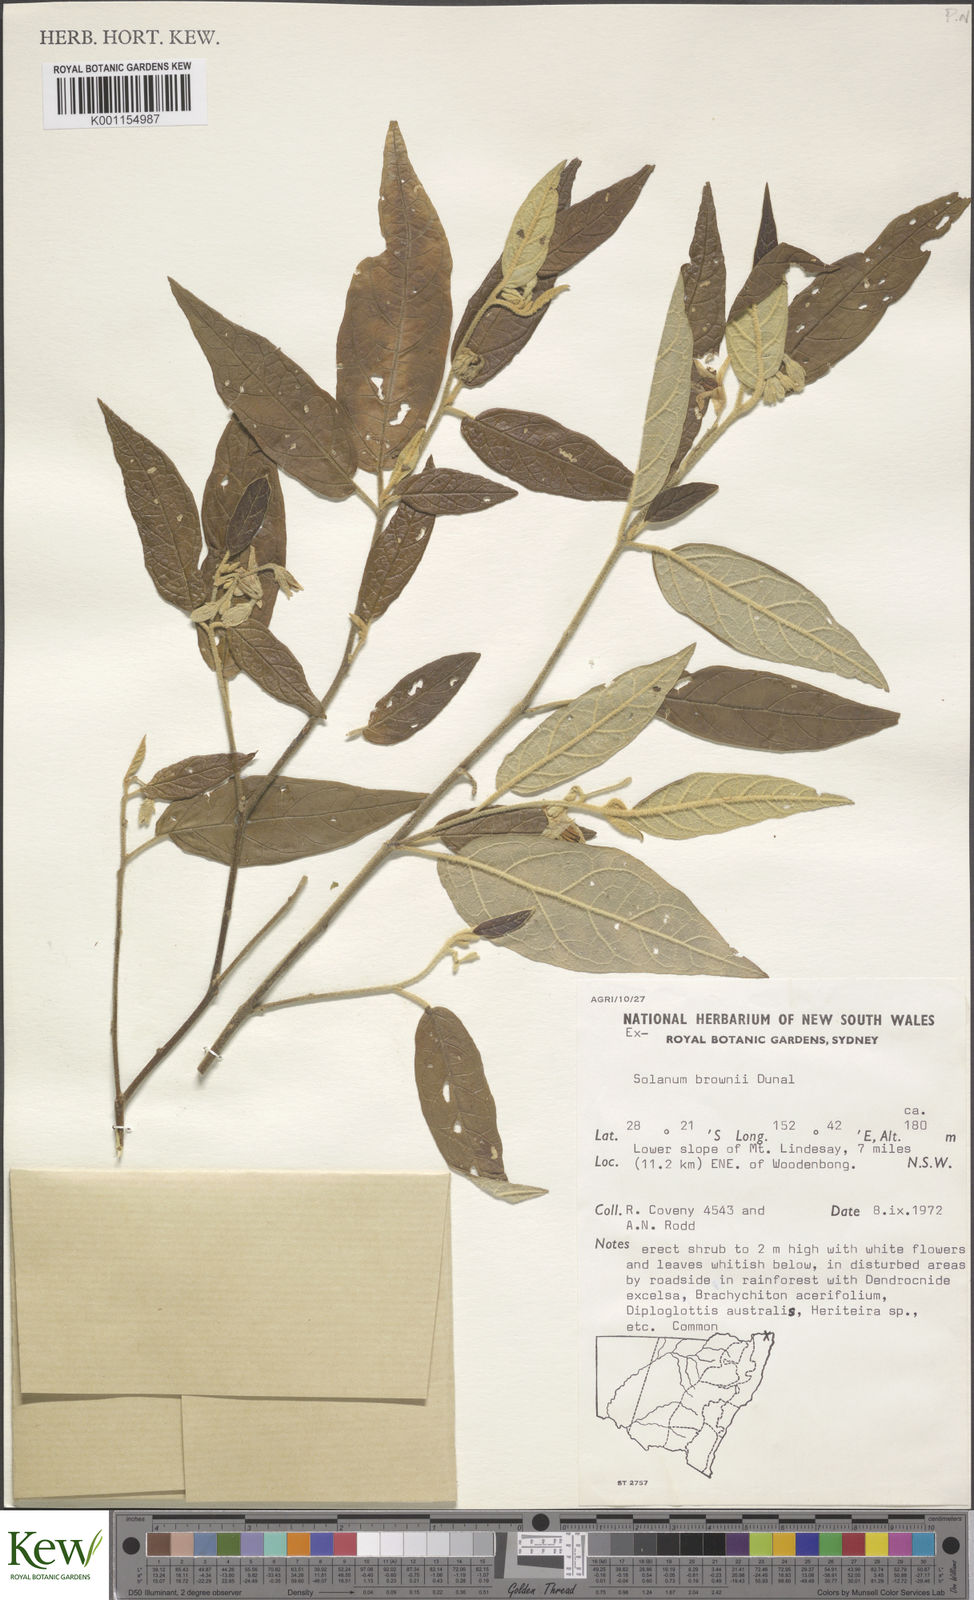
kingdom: Plantae
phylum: Tracheophyta
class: Magnoliopsida
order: Solanales
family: Solanaceae
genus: Solanum
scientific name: Solanum brownii
